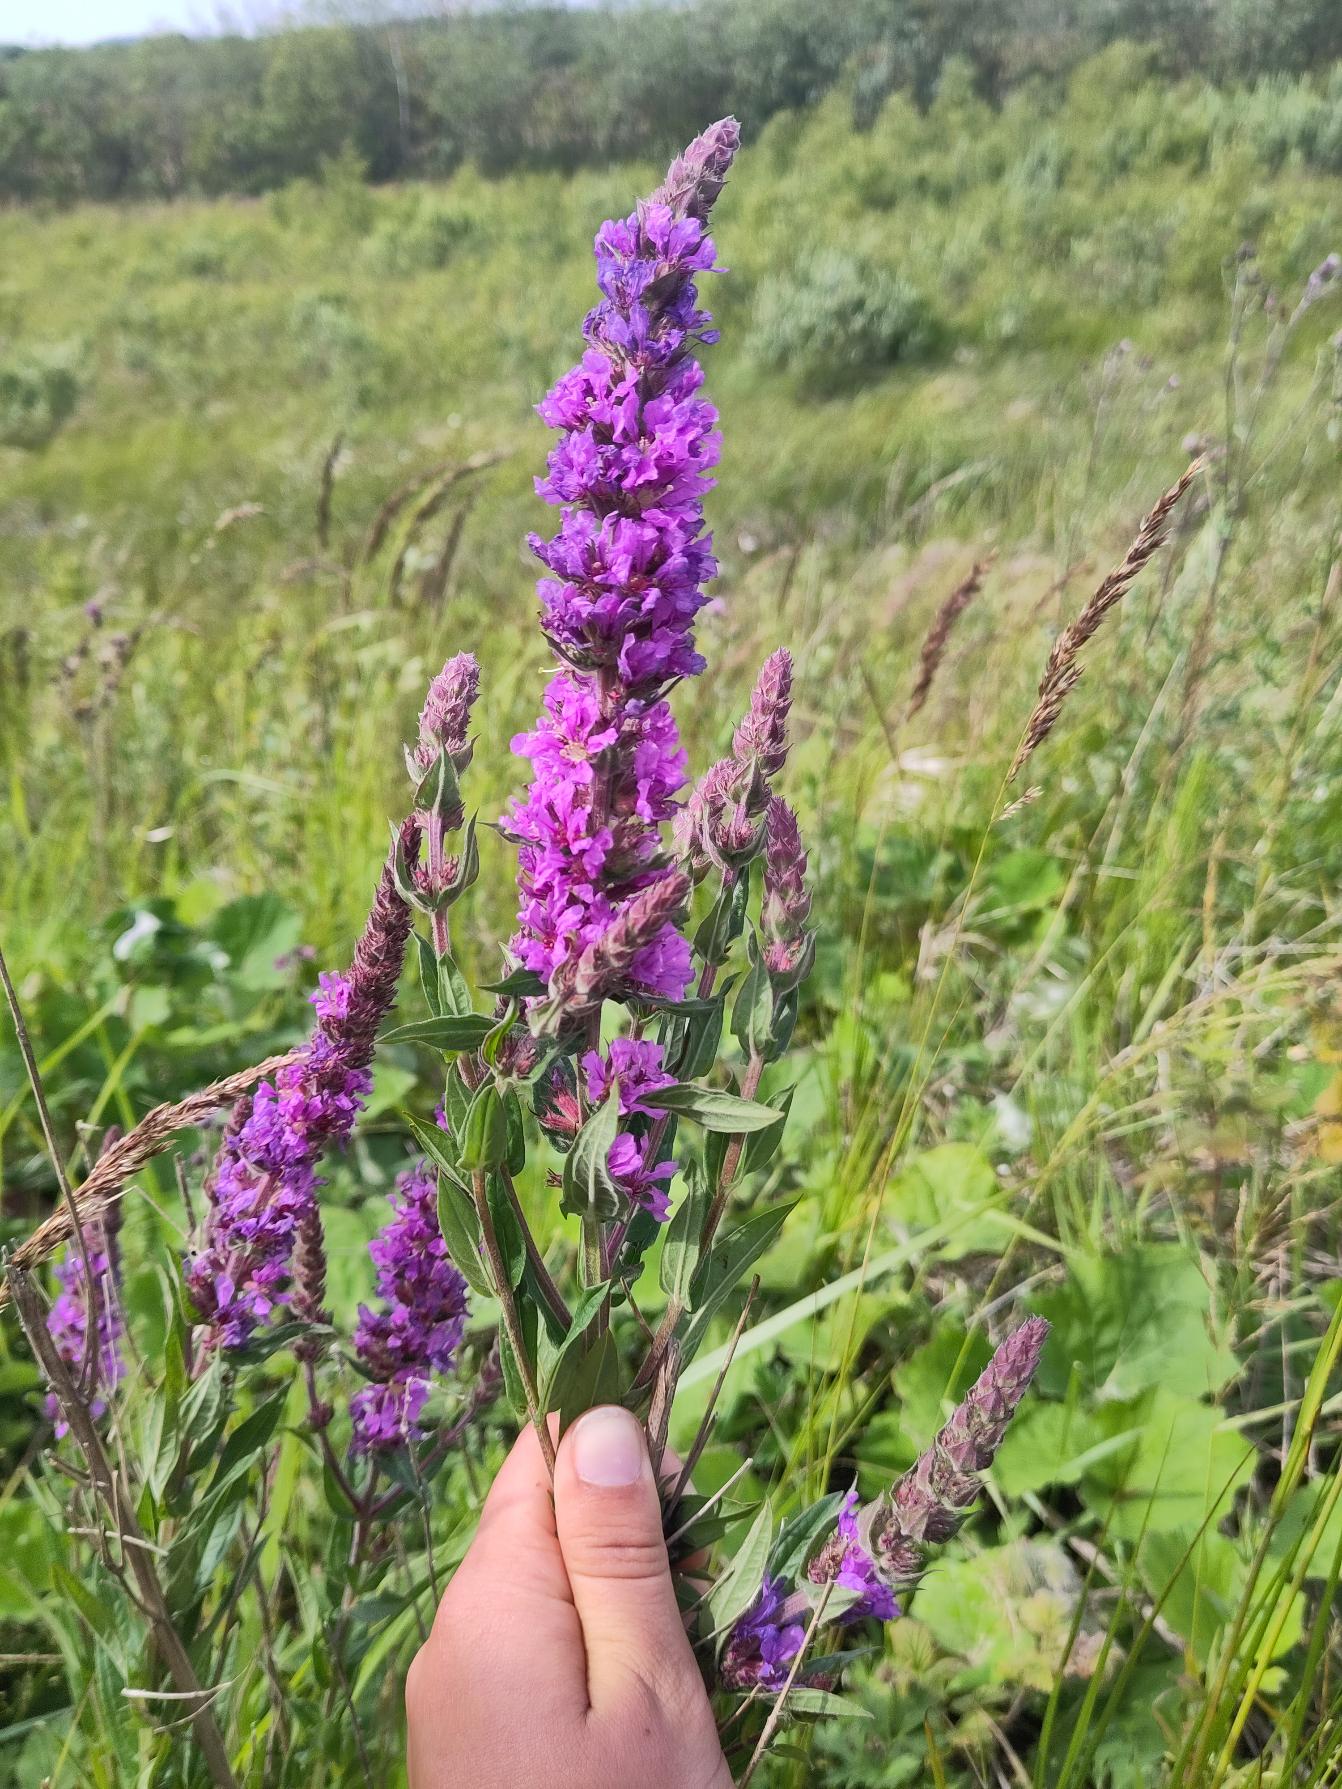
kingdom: Plantae
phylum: Tracheophyta
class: Magnoliopsida
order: Myrtales
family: Lythraceae
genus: Lythrum
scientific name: Lythrum salicaria
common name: Kattehale
